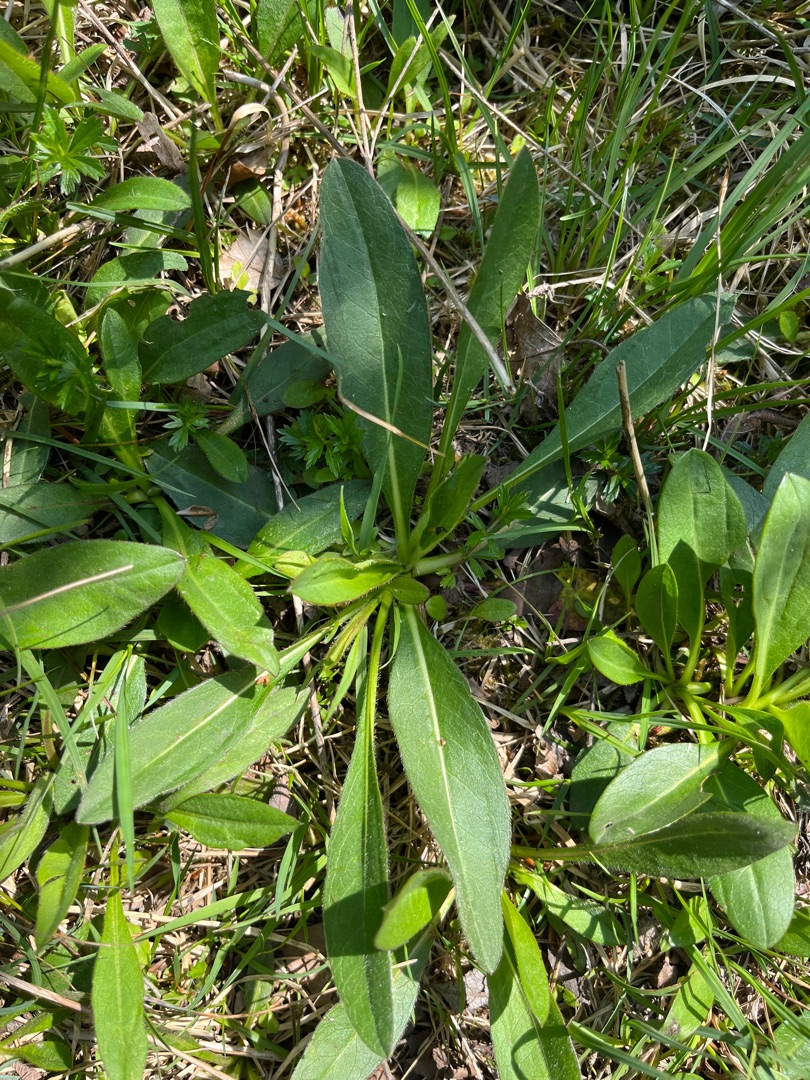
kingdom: Plantae
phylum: Tracheophyta
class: Magnoliopsida
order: Dipsacales
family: Caprifoliaceae
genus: Succisa
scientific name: Succisa pratensis
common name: Djævelsbid
